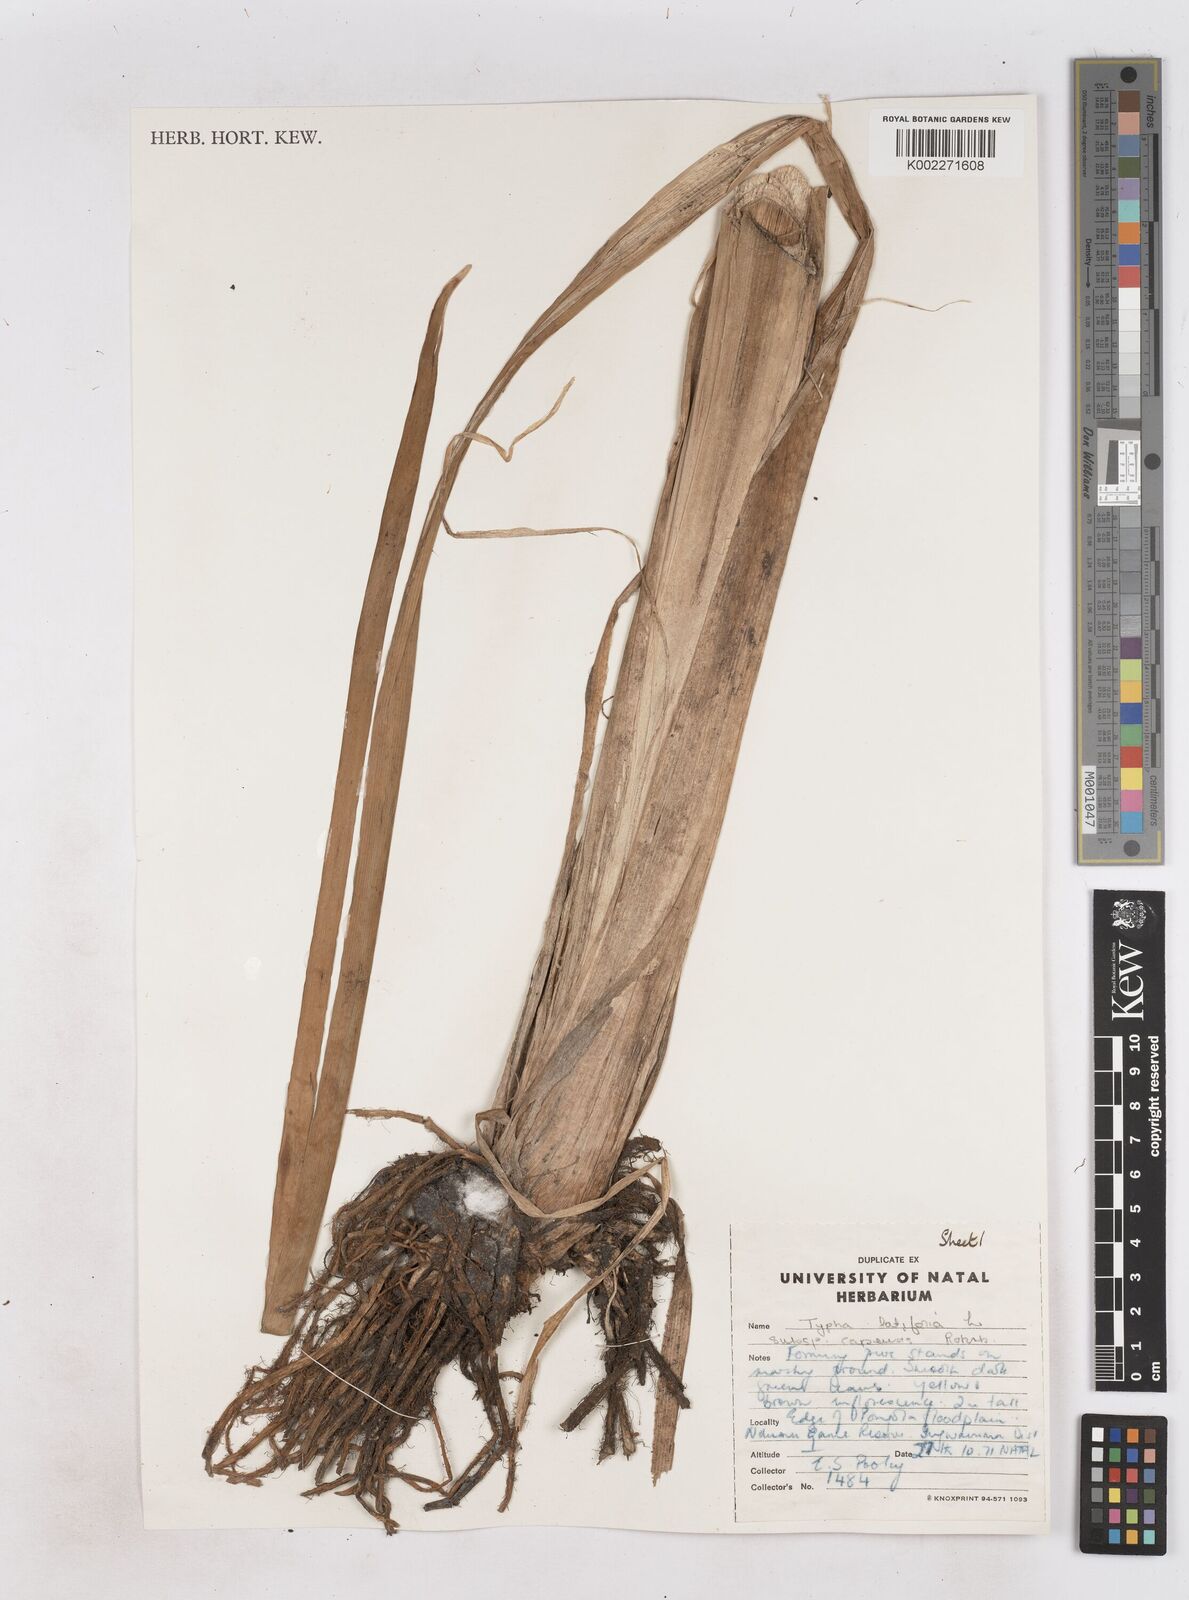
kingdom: Plantae
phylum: Tracheophyta
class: Liliopsida
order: Poales
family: Typhaceae
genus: Typha
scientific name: Typha capensis
